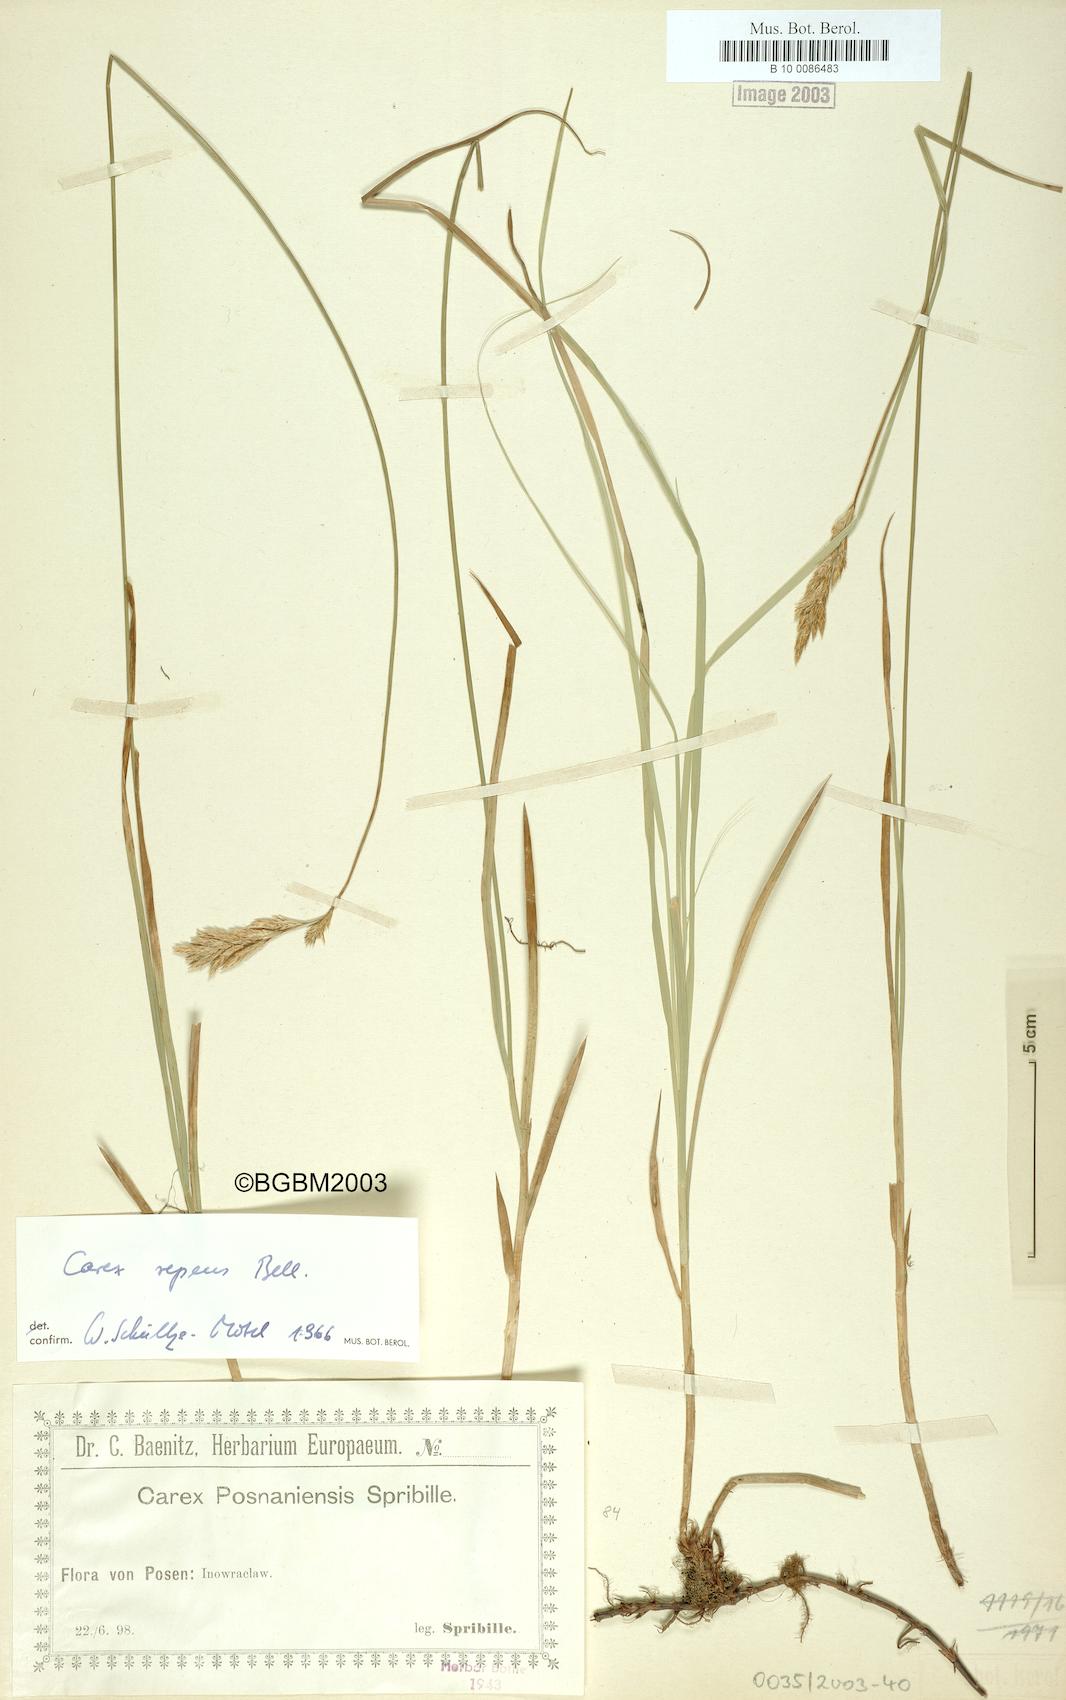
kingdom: Plantae
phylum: Tracheophyta
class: Liliopsida
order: Poales
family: Cyperaceae
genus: Carex
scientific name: Carex repens
